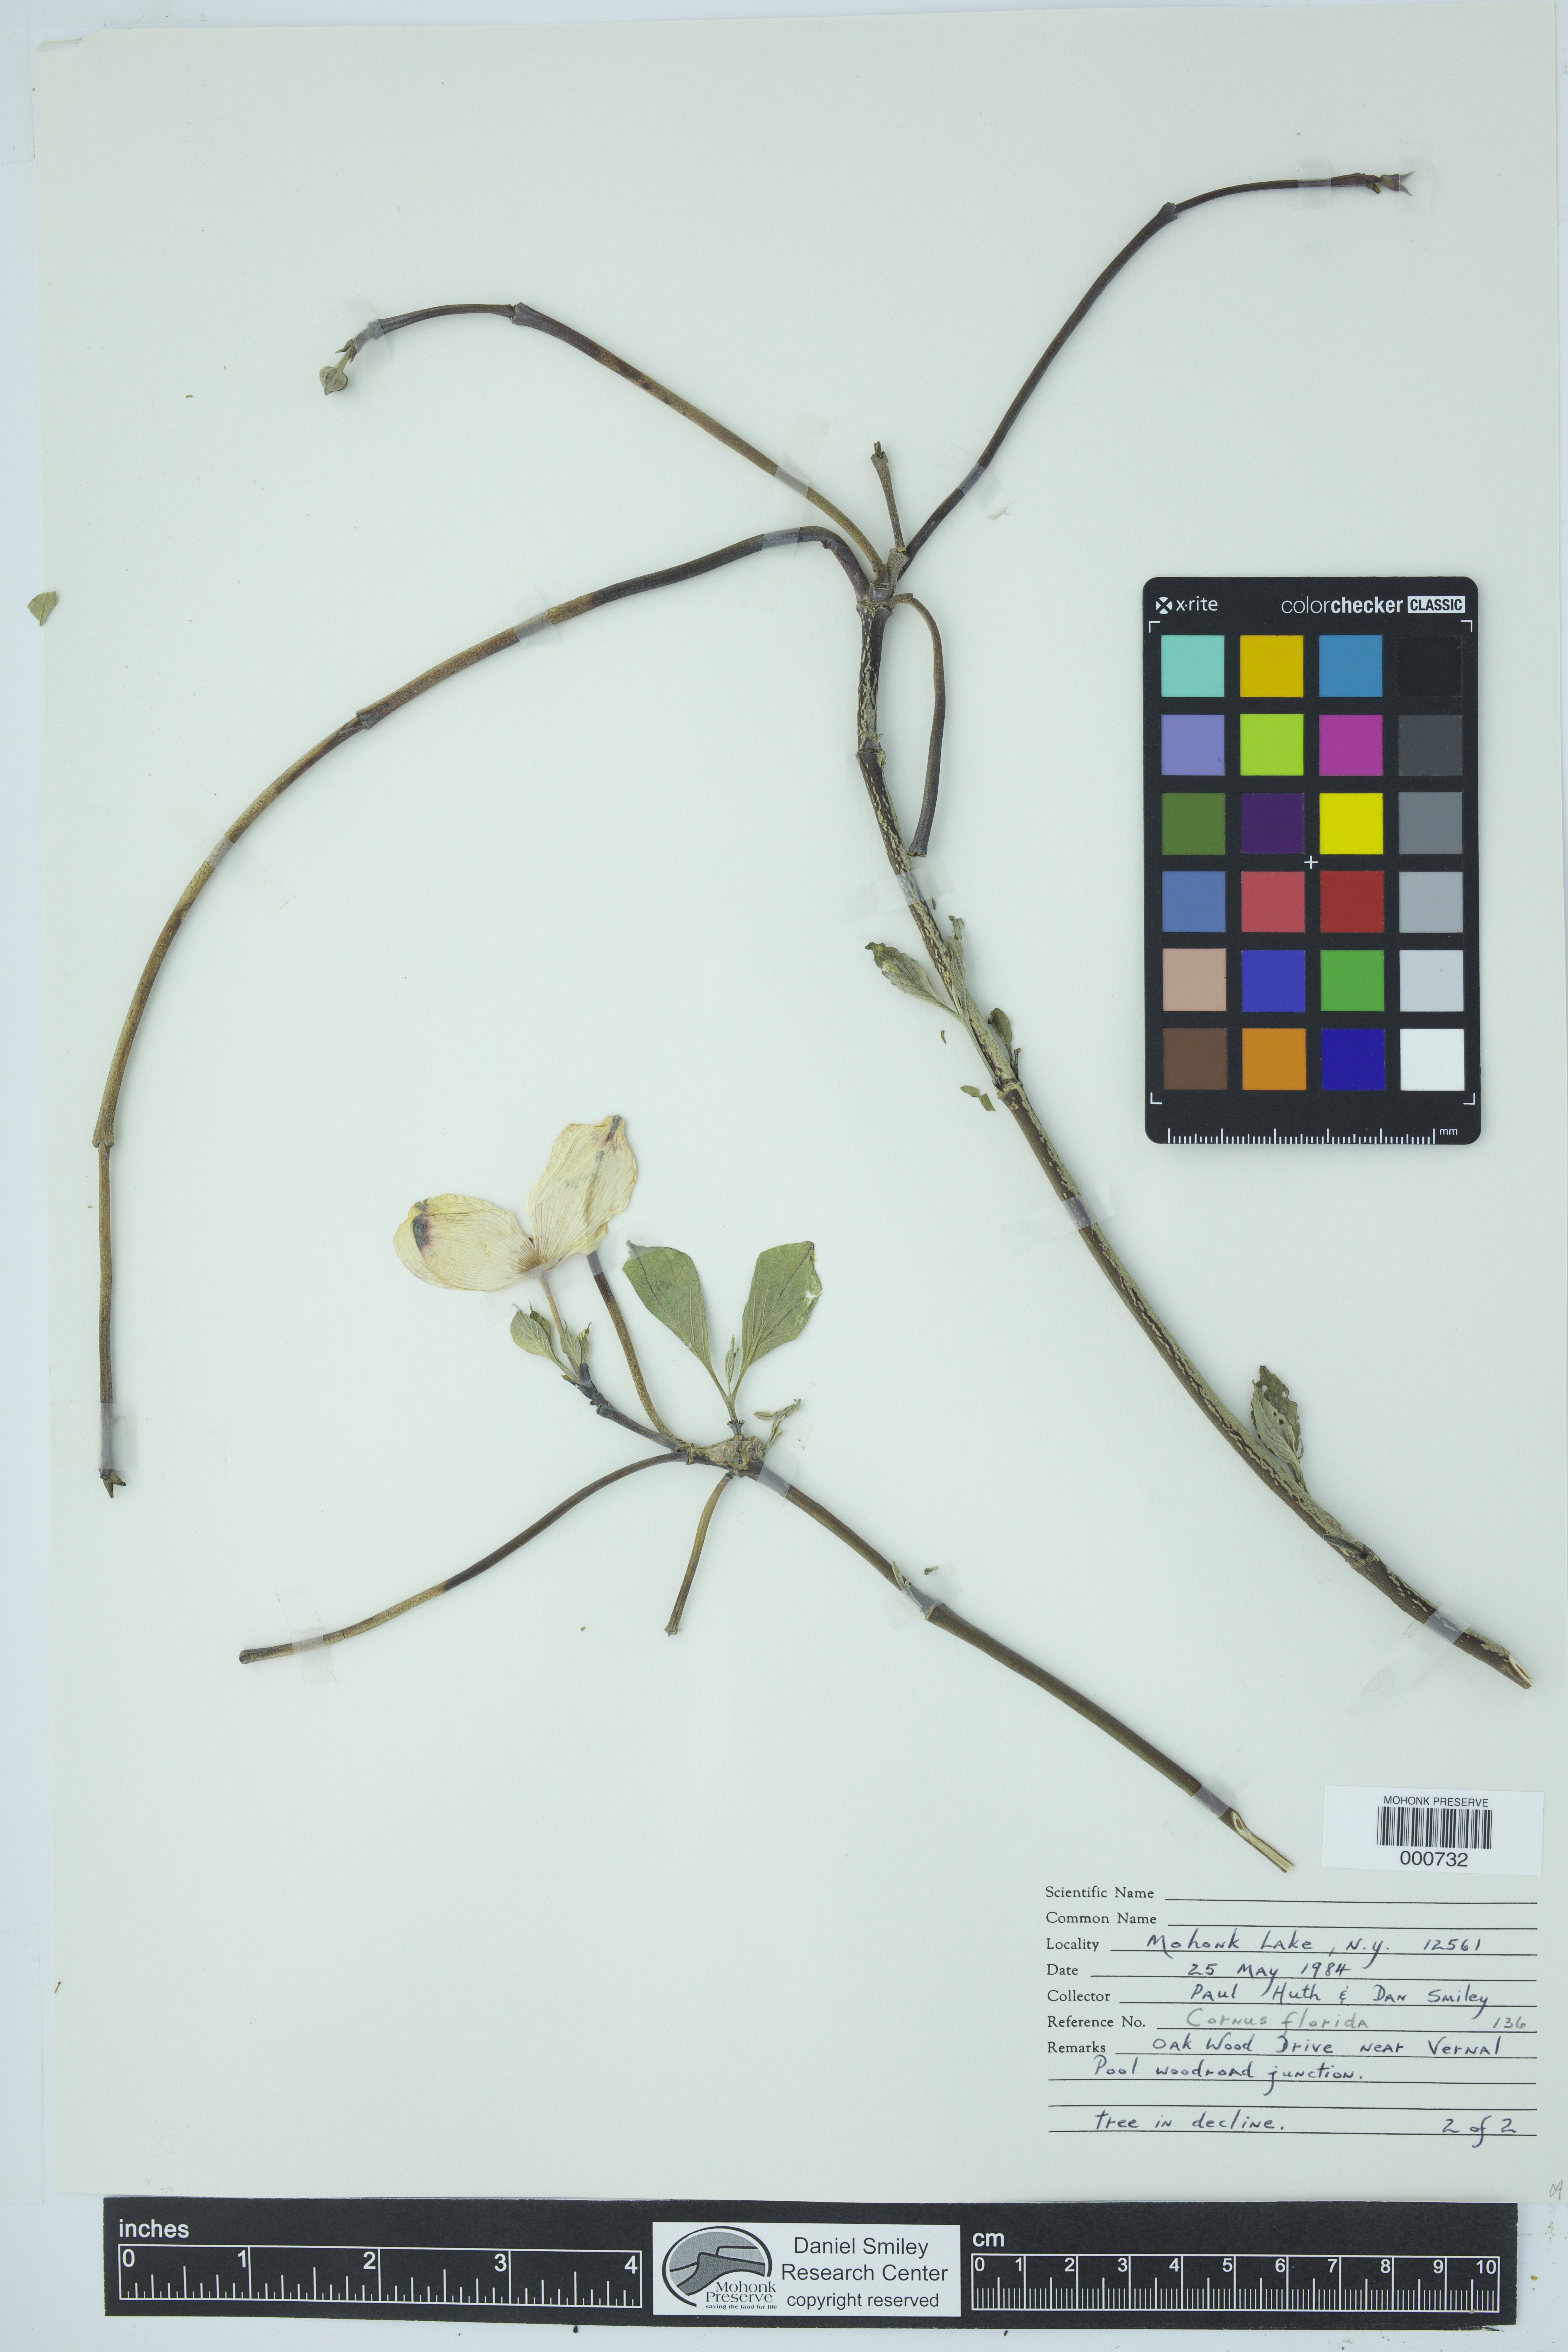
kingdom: Plantae
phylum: Tracheophyta
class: Magnoliopsida
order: Cornales
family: Cornaceae
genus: Cornus
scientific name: Cornus florida
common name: Flowering dogwood
